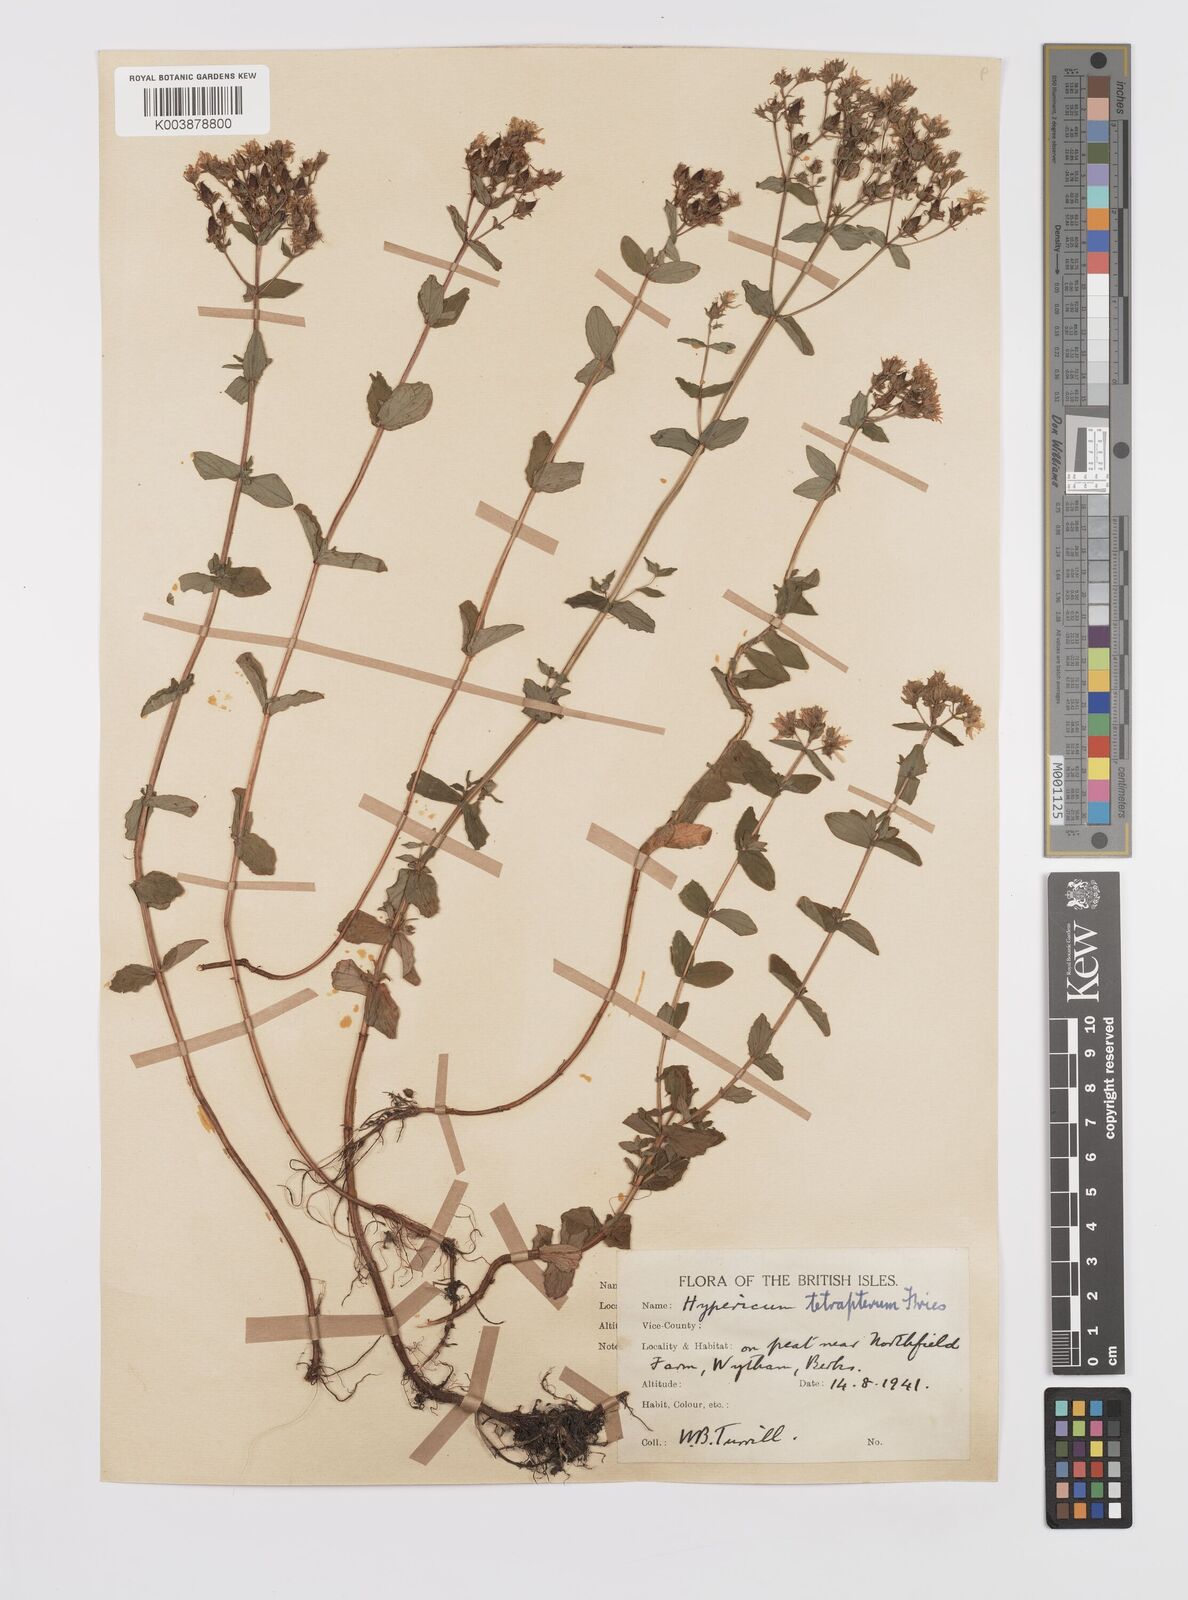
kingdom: Plantae
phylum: Tracheophyta
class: Magnoliopsida
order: Malpighiales
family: Hypericaceae
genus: Hypericum
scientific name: Hypericum tetrapterum
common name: Square-stalked st. john's-wort
